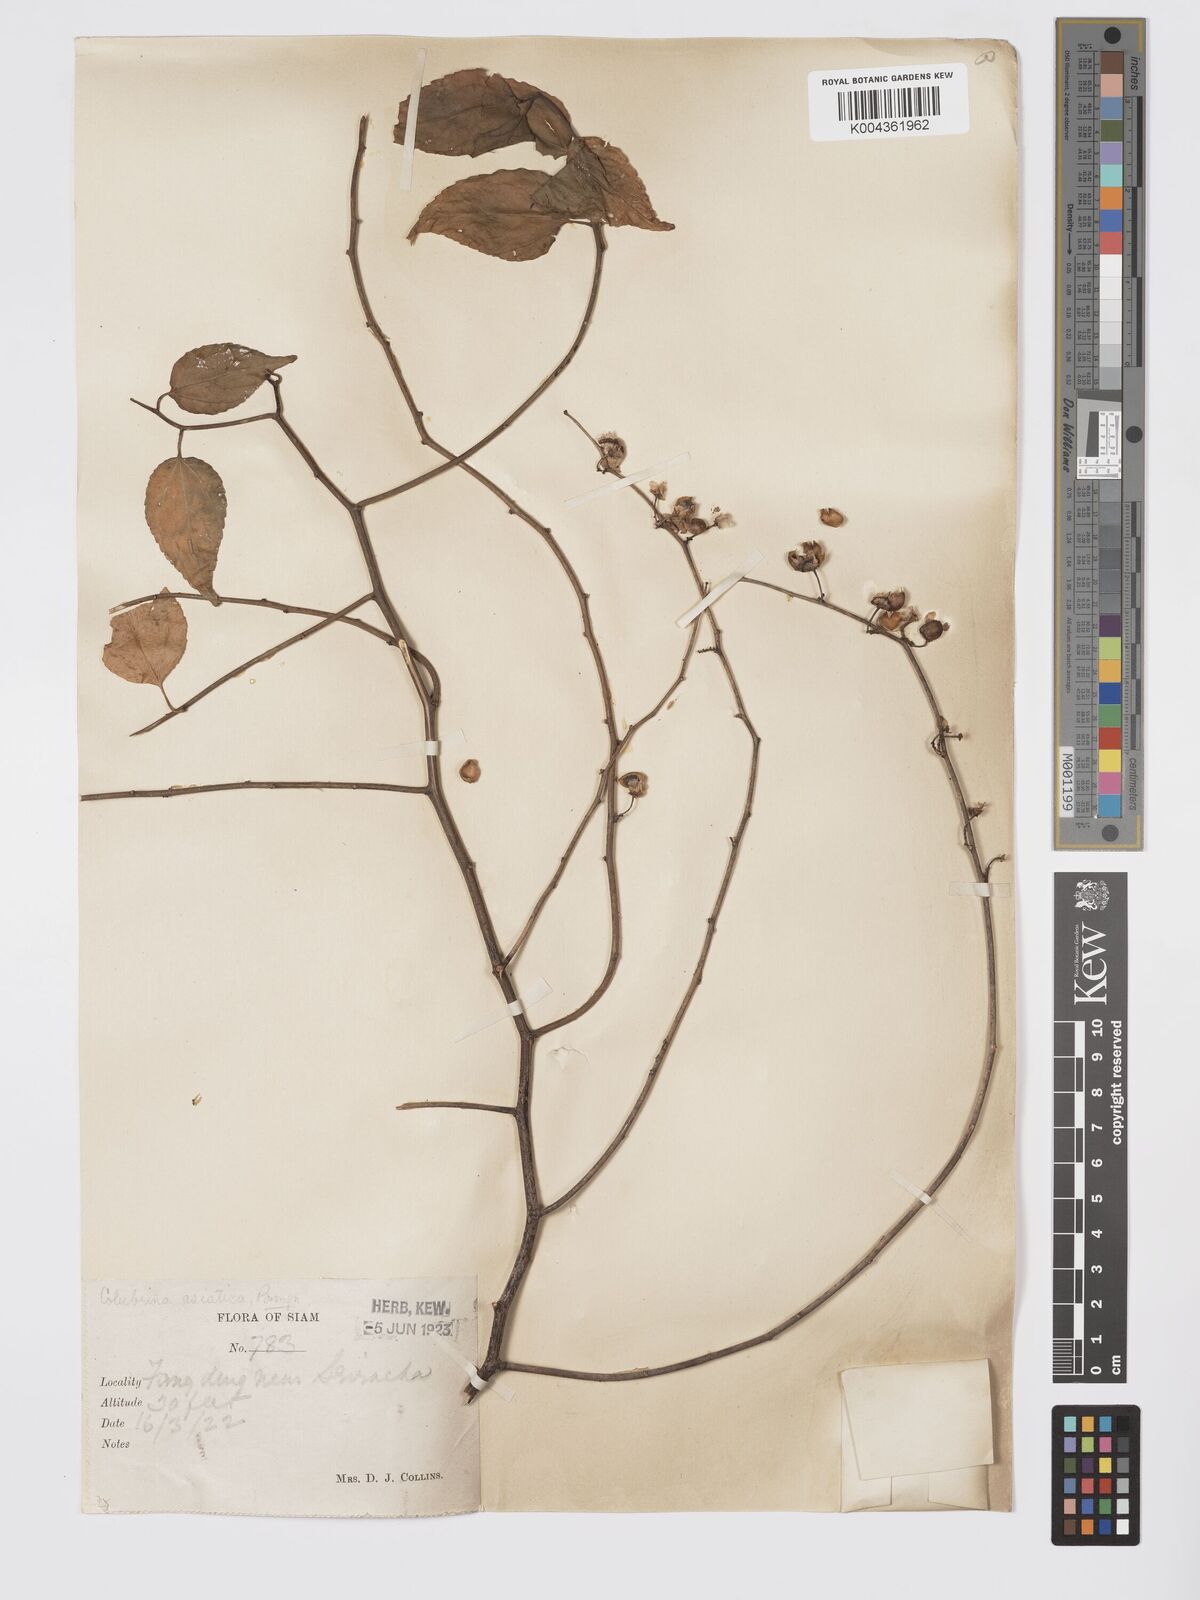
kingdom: Plantae
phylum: Tracheophyta
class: Magnoliopsida
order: Rosales
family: Rhamnaceae
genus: Colubrina
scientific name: Colubrina asiatica
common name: Asian nakedwood
